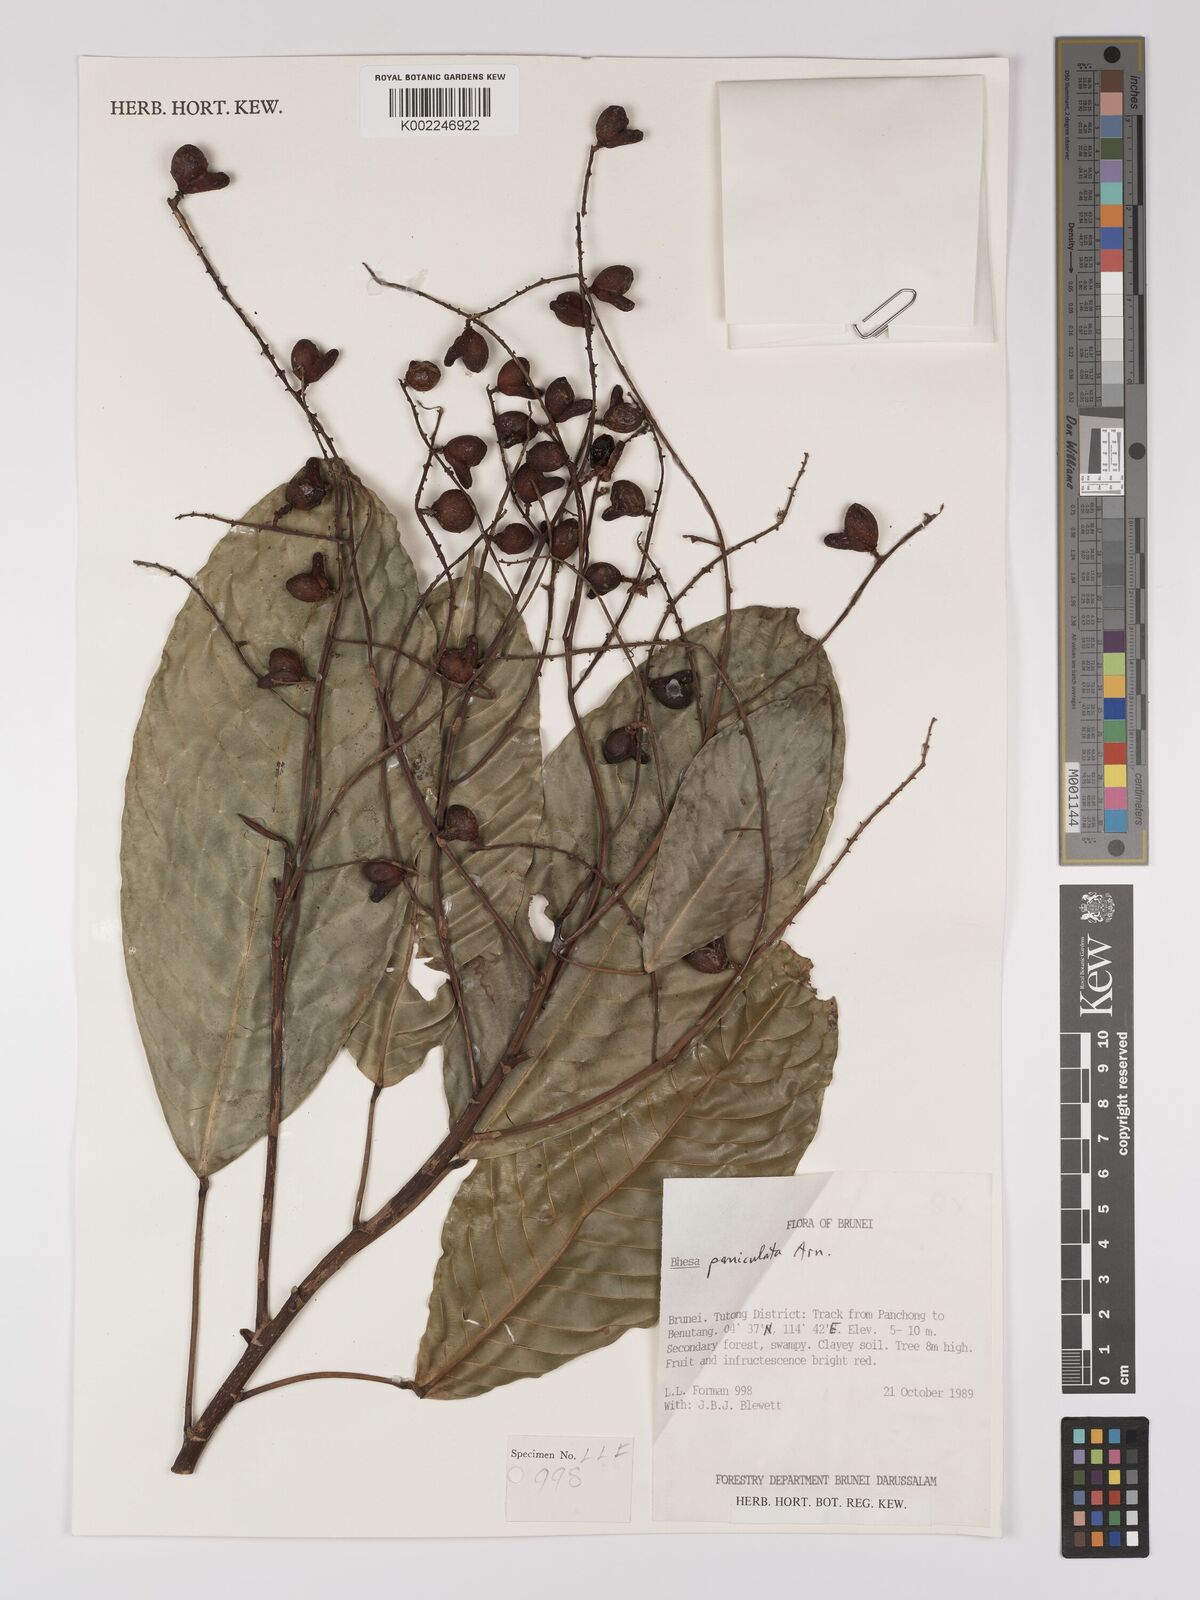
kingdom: Plantae
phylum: Tracheophyta
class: Magnoliopsida
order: Malpighiales
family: Centroplacaceae
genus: Bhesa
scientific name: Bhesa paniculata
